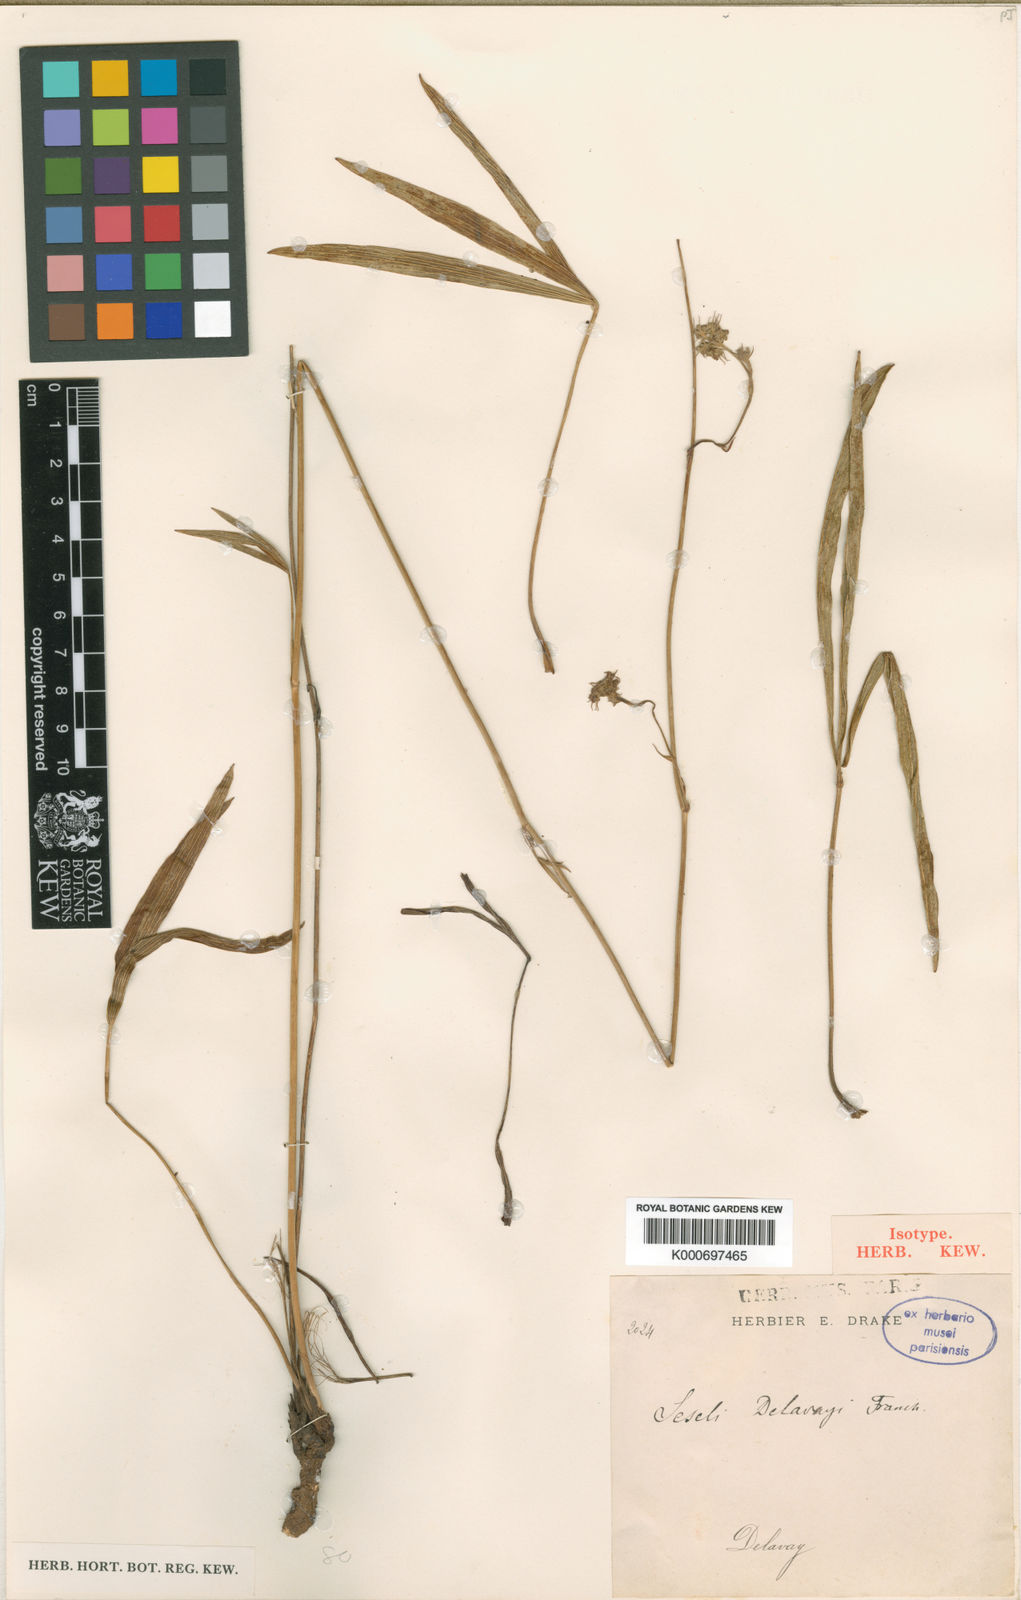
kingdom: Plantae
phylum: Tracheophyta
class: Magnoliopsida
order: Apiales
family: Apiaceae
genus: Seseli
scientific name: Seseli delavayi
